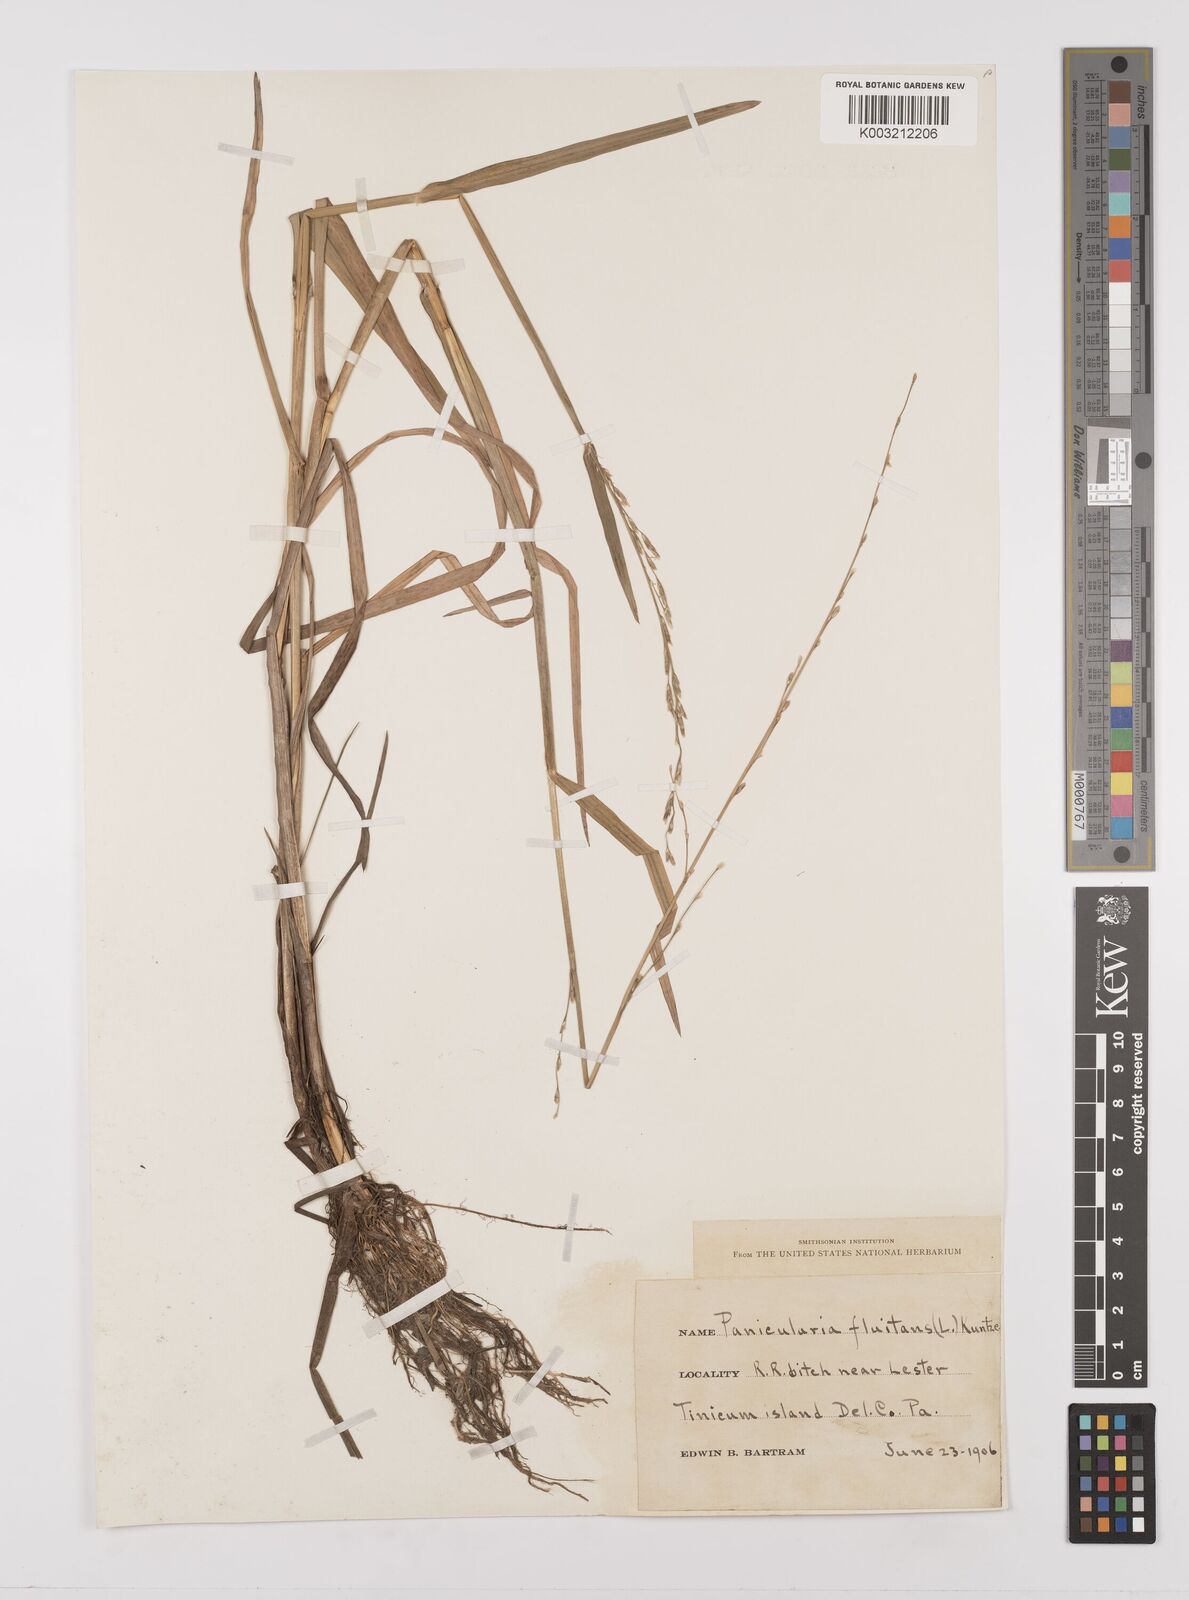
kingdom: Plantae
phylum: Tracheophyta
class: Liliopsida
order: Poales
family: Poaceae
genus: Glyceria
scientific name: Glyceria
